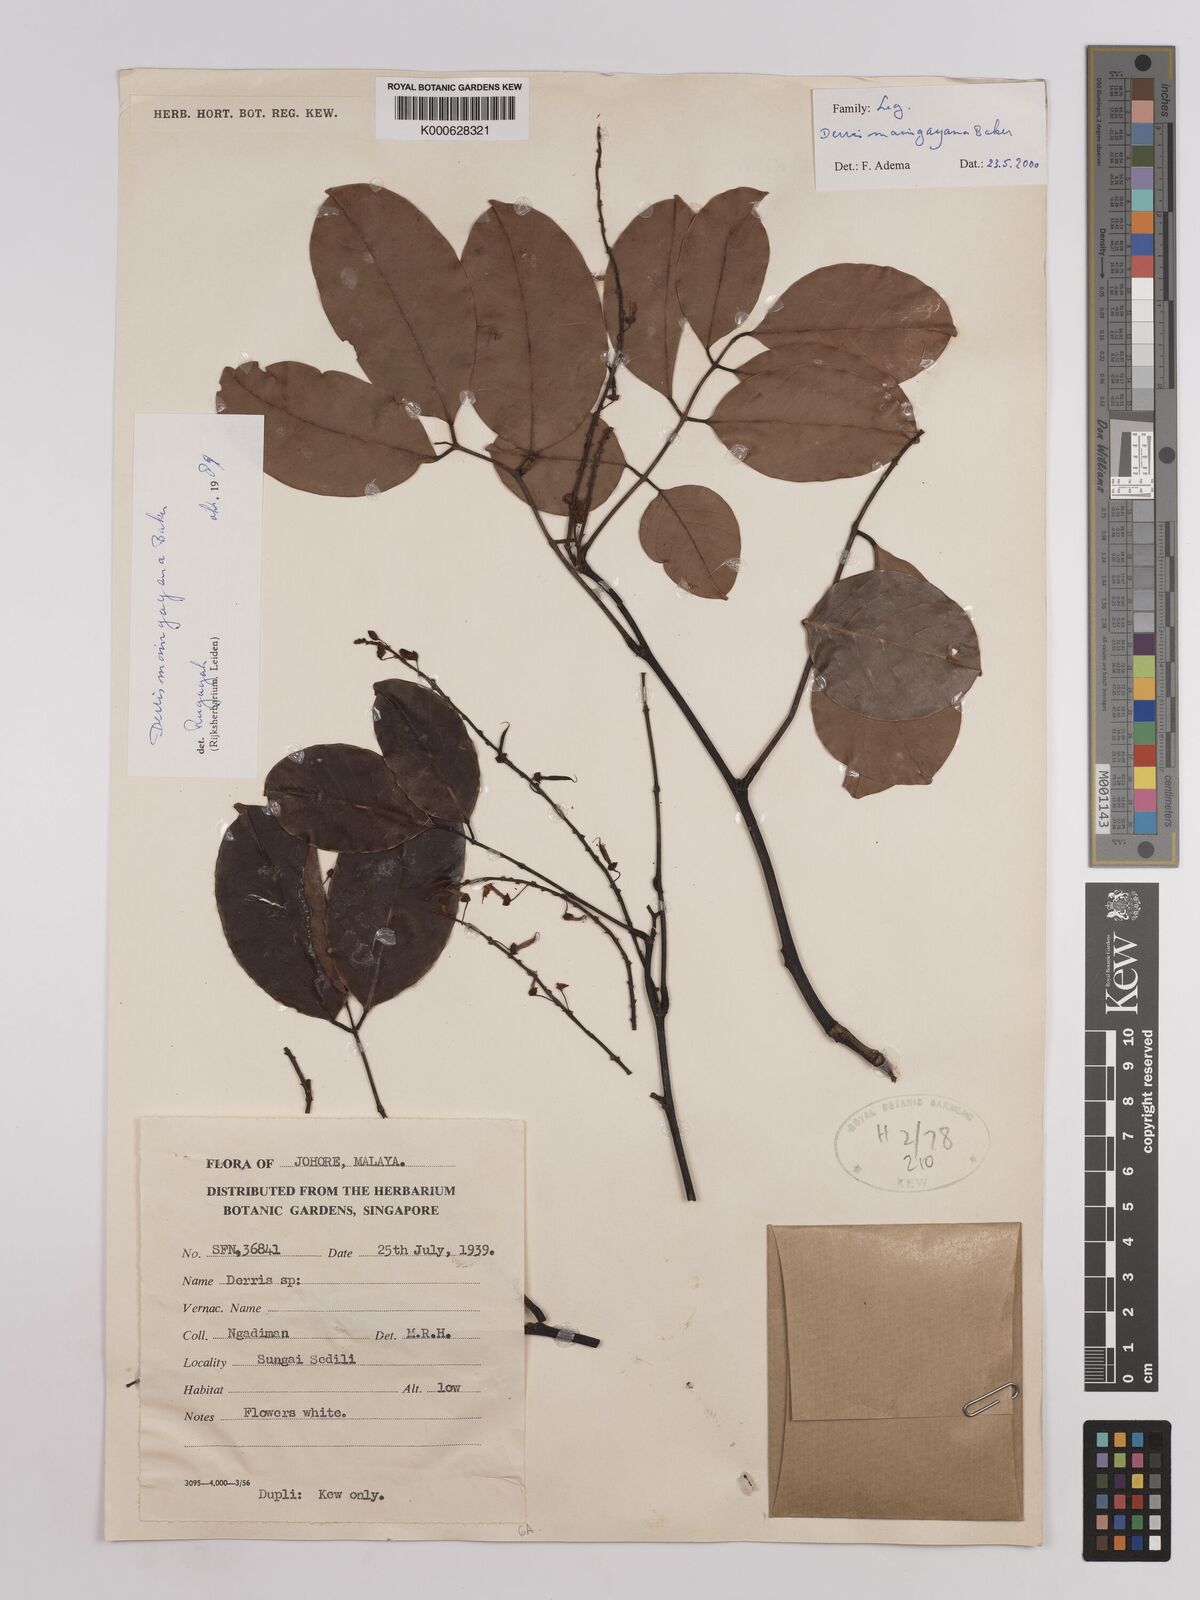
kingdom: Plantae
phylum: Tracheophyta
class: Magnoliopsida
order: Fabales
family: Fabaceae
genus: Derris
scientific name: Derris amoena
